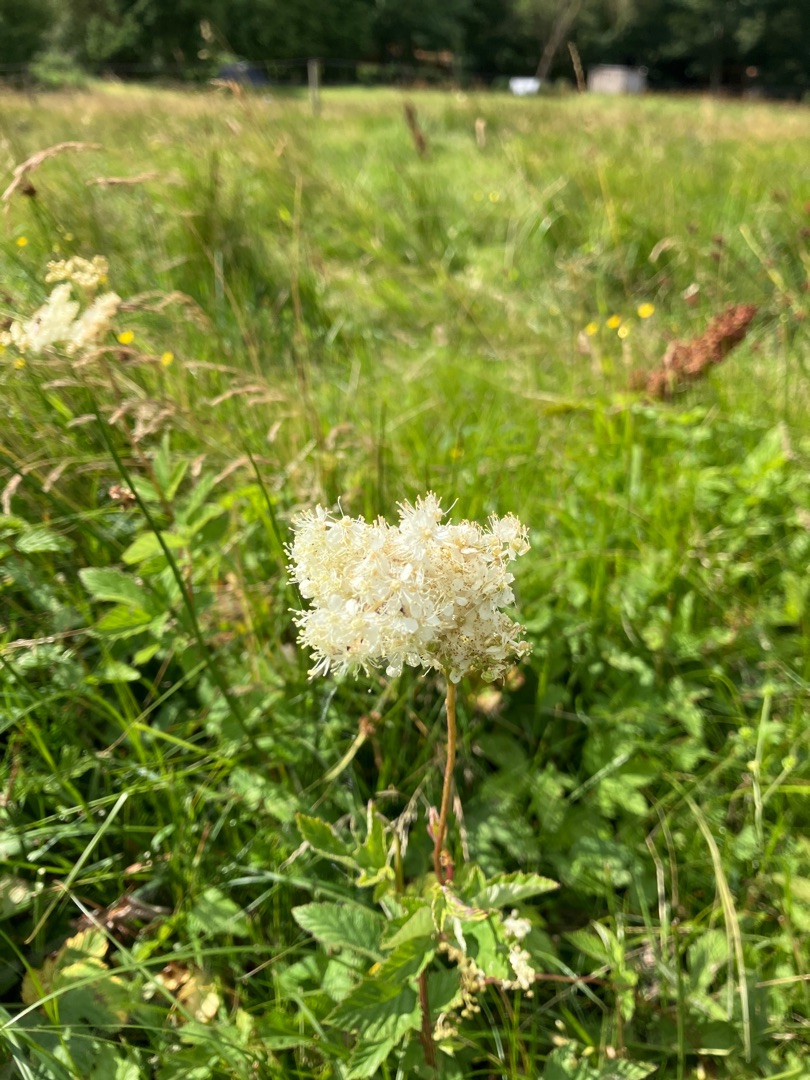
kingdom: Plantae
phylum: Tracheophyta
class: Magnoliopsida
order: Rosales
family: Rosaceae
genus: Filipendula
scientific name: Filipendula ulmaria
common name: Almindelig mjødurt
